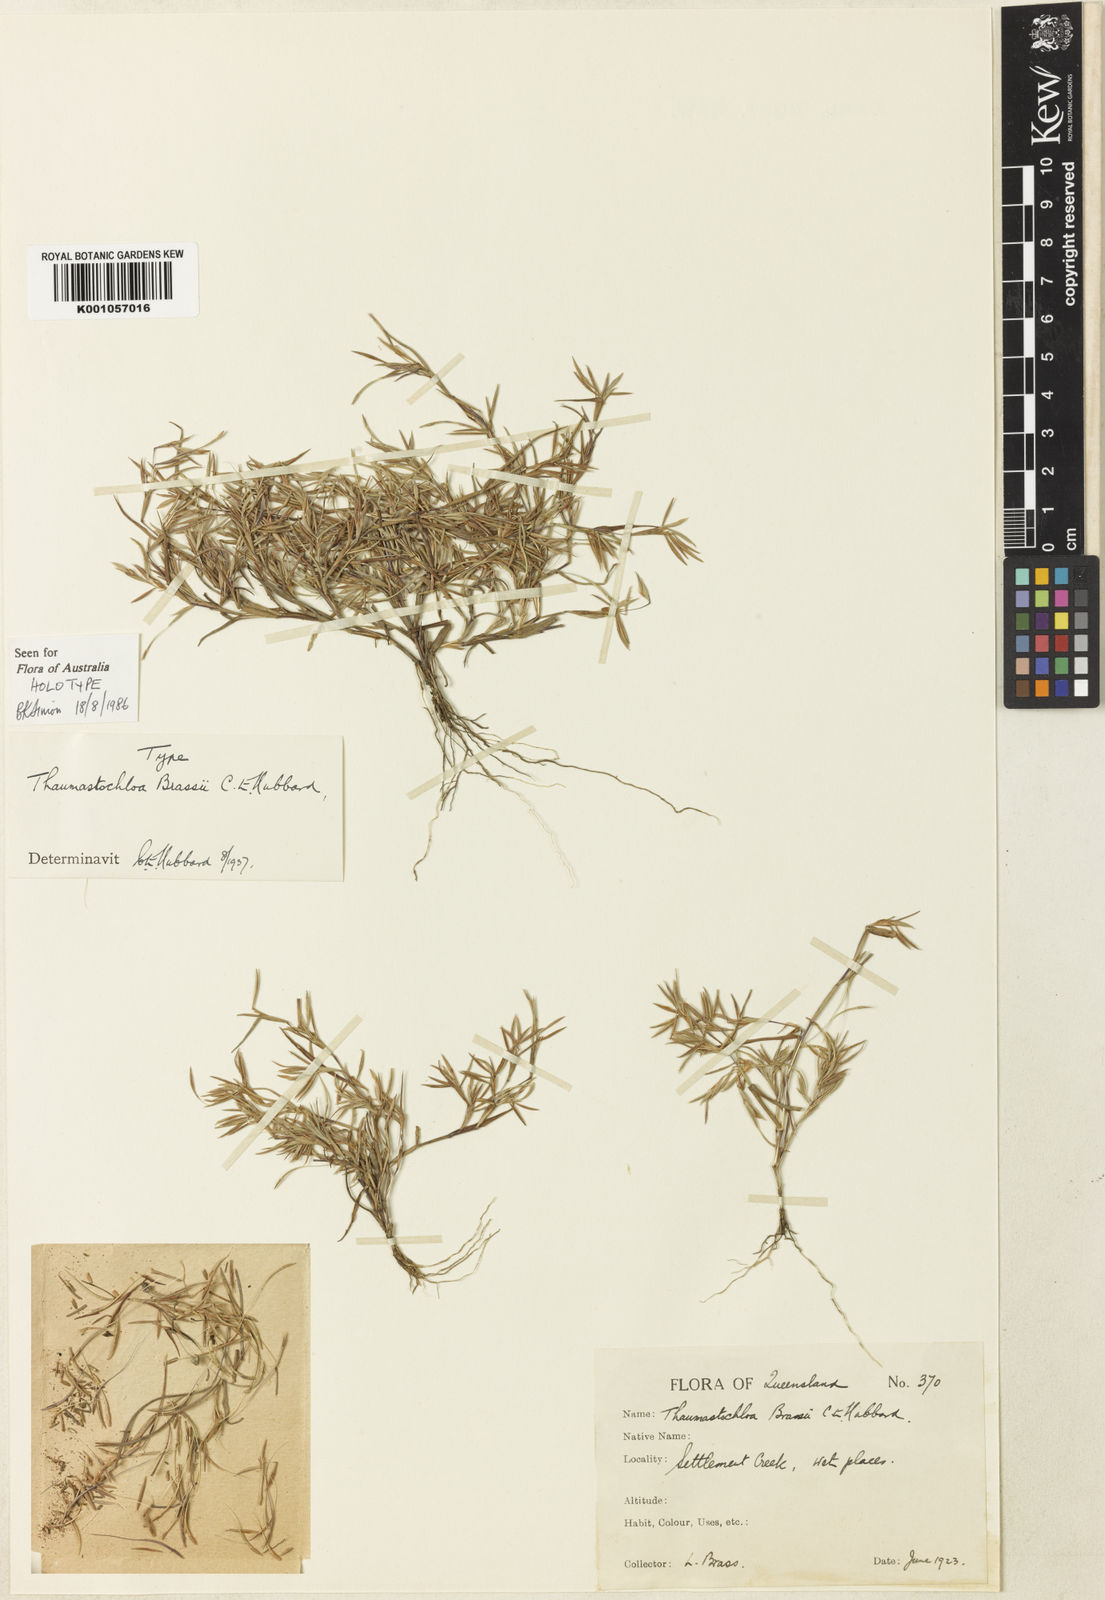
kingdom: Plantae
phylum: Tracheophyta
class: Liliopsida
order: Poales
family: Poaceae
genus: Thaumastochloa
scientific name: Thaumastochloa brassii
